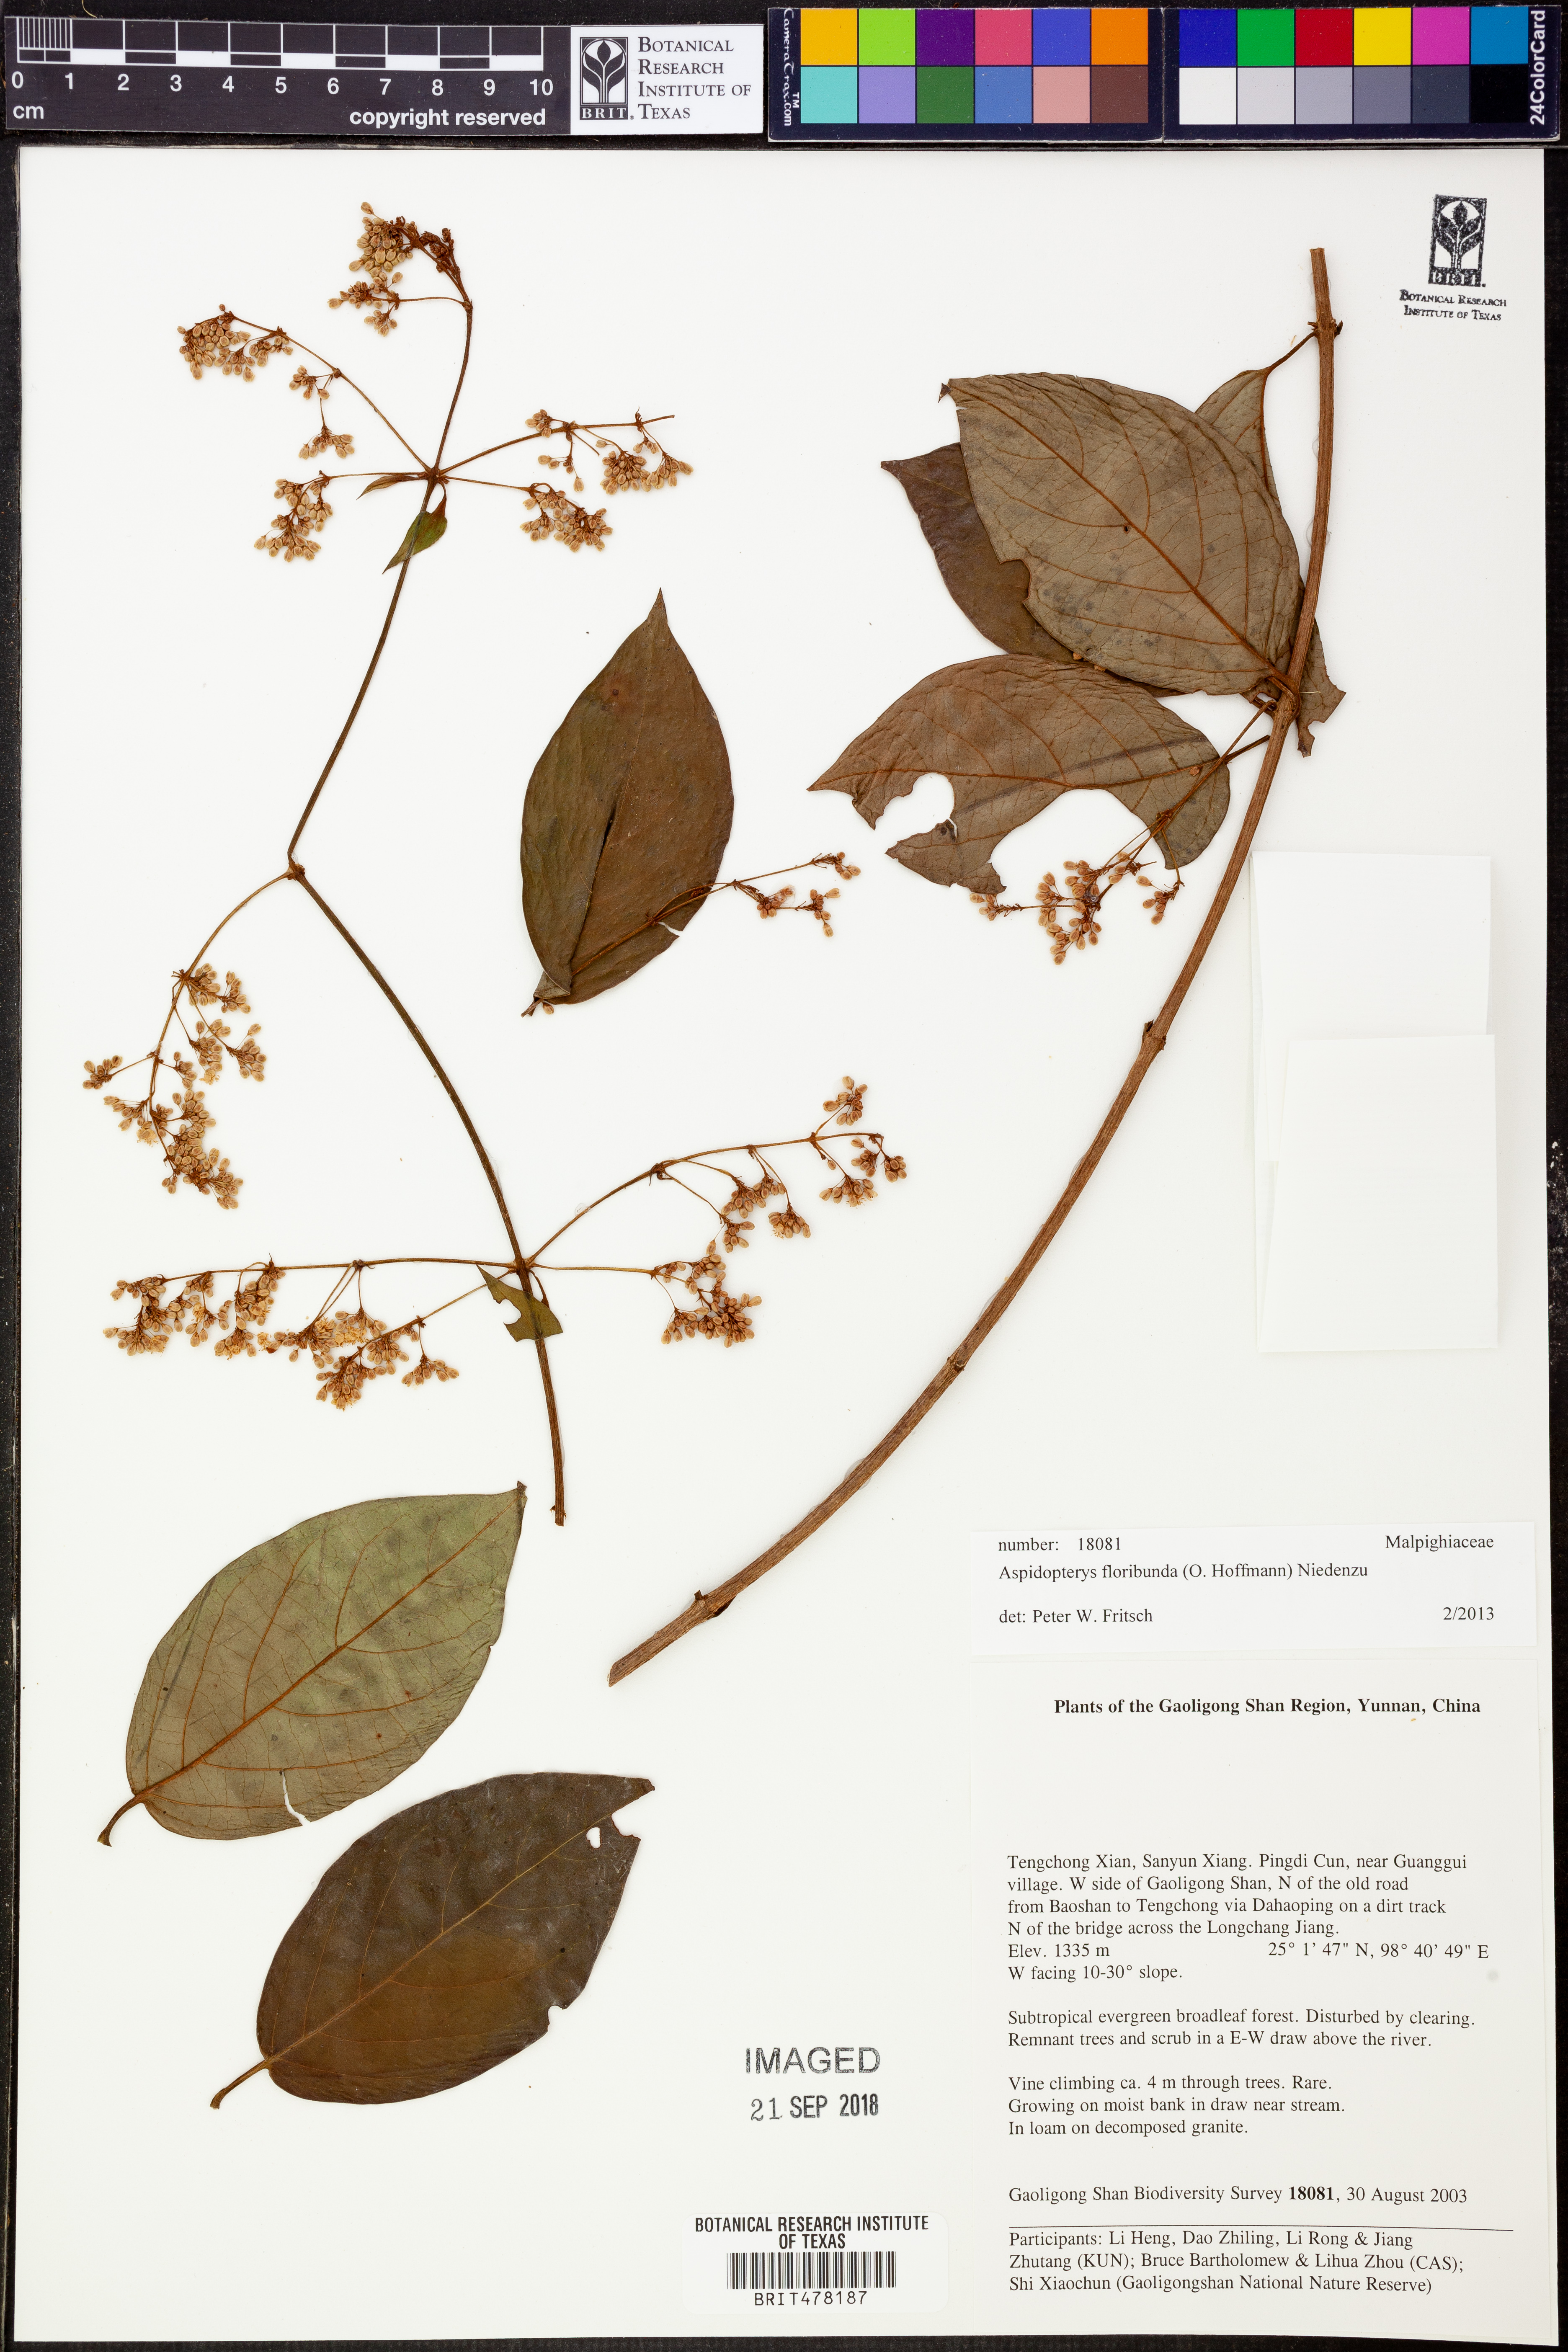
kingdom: Plantae
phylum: Tracheophyta
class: Magnoliopsida
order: Malpighiales
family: Malpighiaceae
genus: Aspidopterys
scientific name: Aspidopterys glabriuscula
